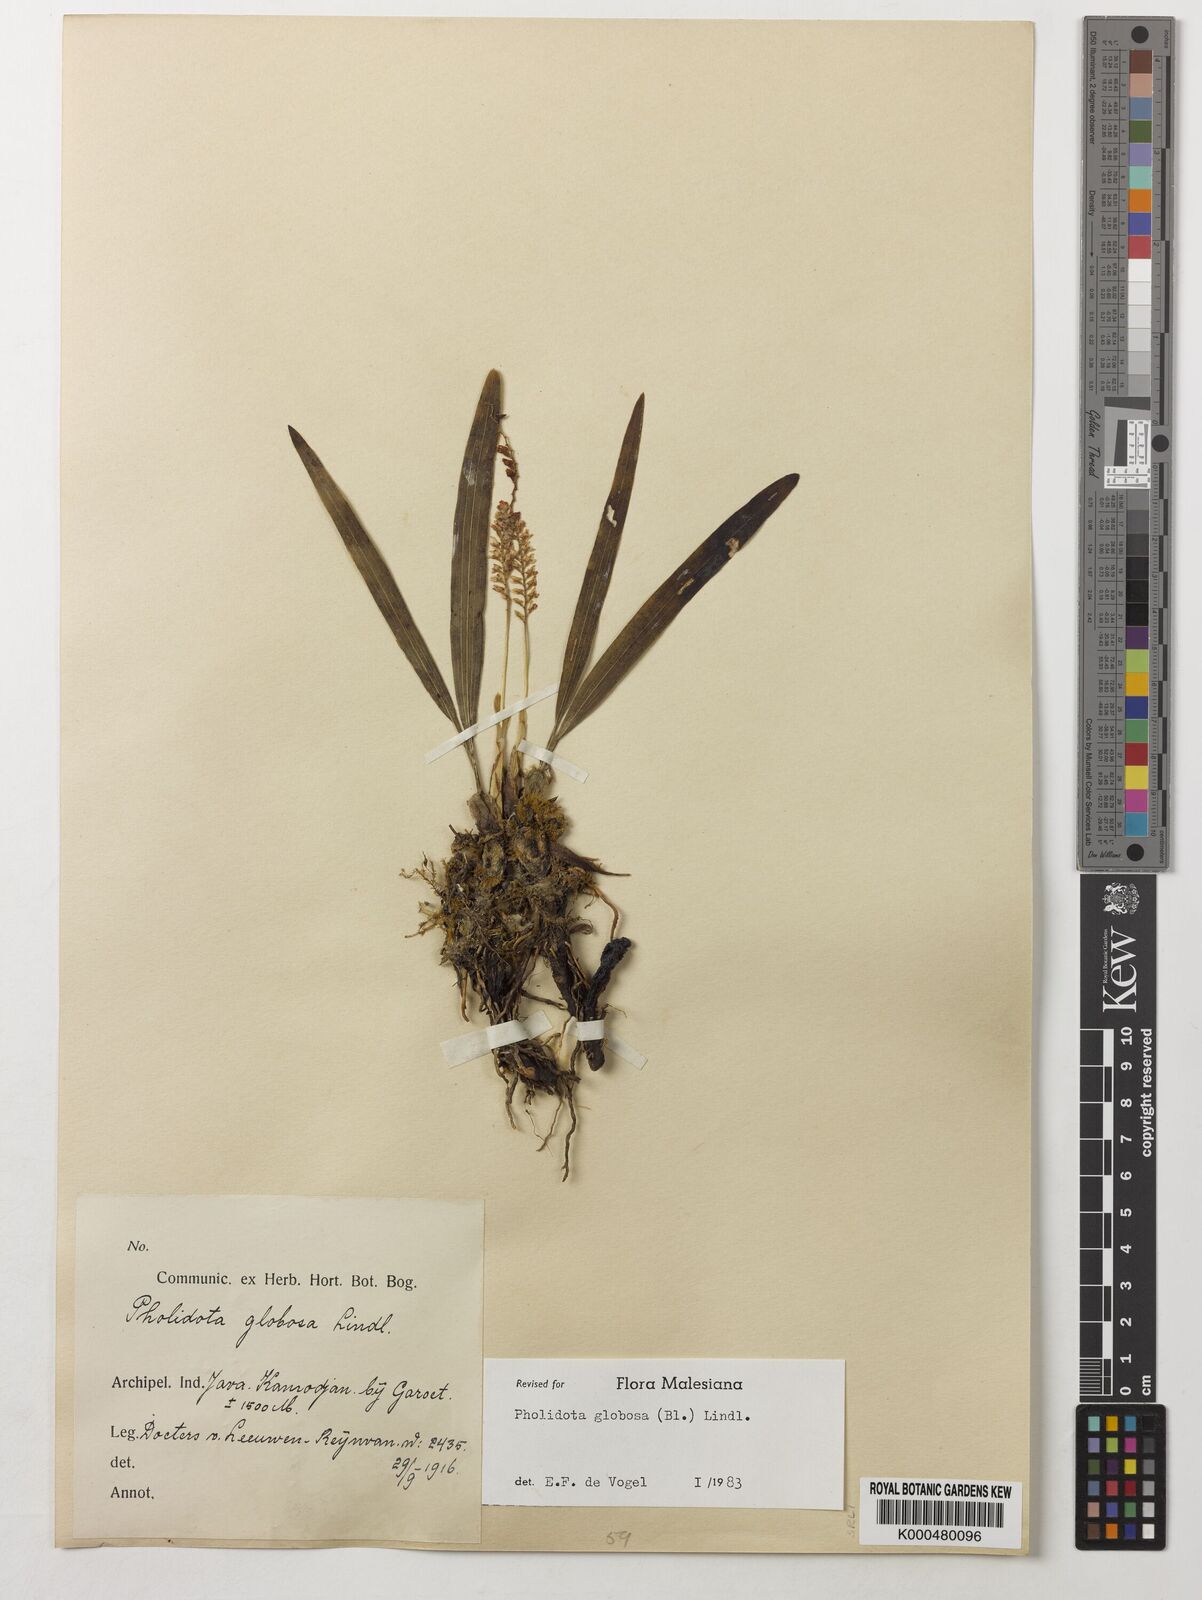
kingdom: Plantae
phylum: Tracheophyta
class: Liliopsida
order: Asparagales
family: Orchidaceae
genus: Coelogyne
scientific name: Coelogyne globosa
